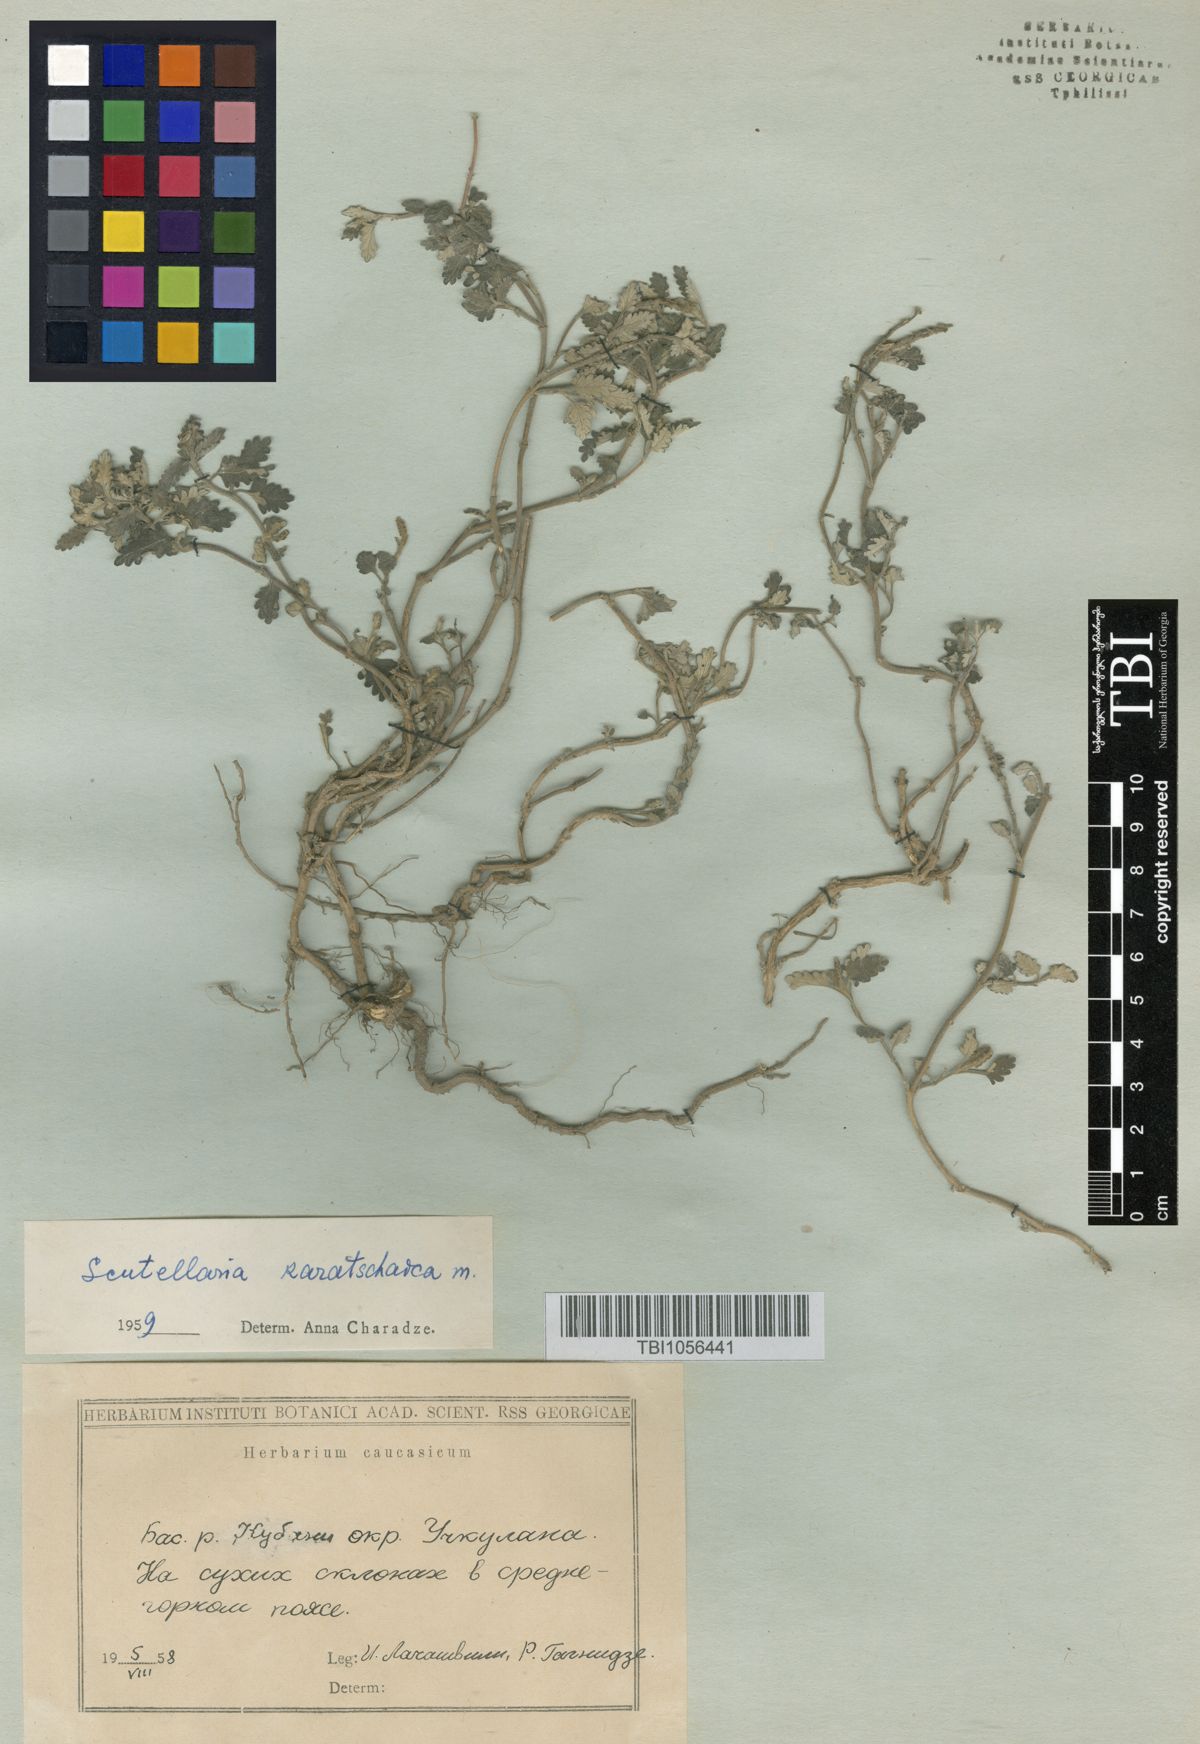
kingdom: Plantae
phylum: Tracheophyta
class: Magnoliopsida
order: Lamiales
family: Lamiaceae
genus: Scutellaria
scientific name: Scutellaria orientalis
